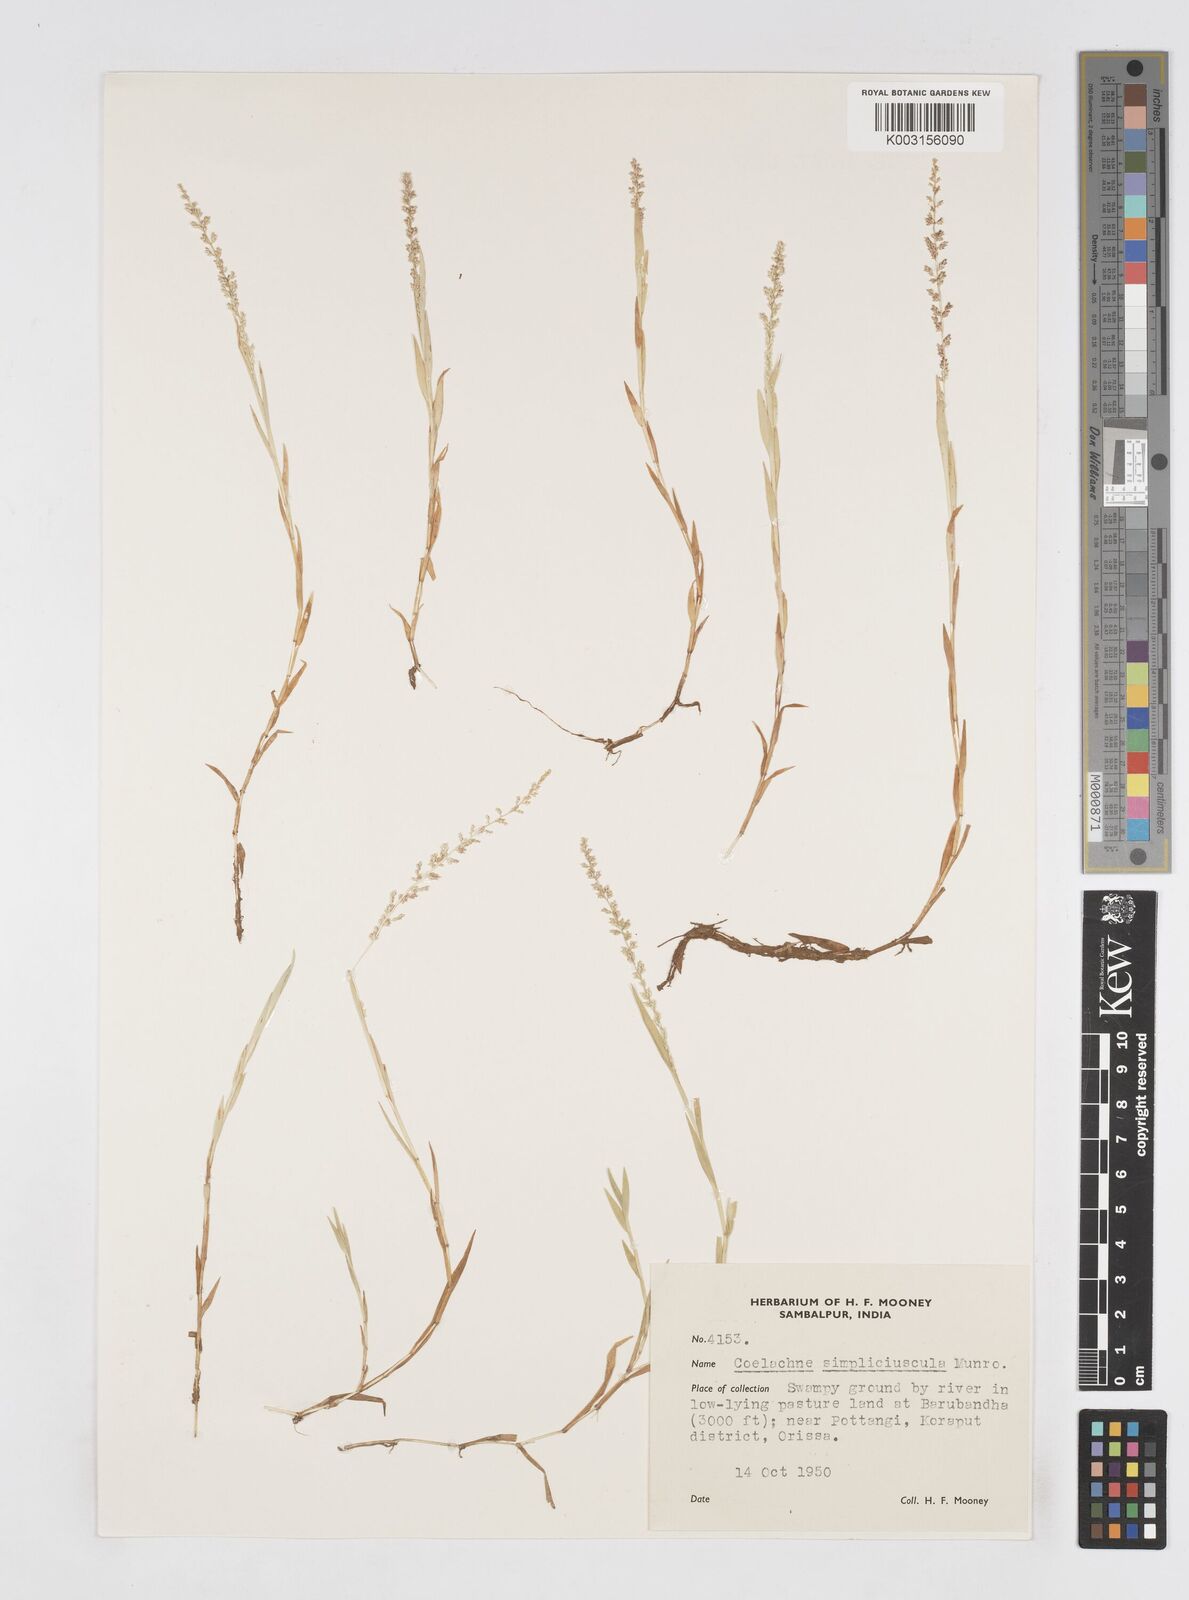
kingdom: Plantae
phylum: Tracheophyta
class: Liliopsida
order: Poales
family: Poaceae
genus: Coelachne
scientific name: Coelachne simpliciuscula
